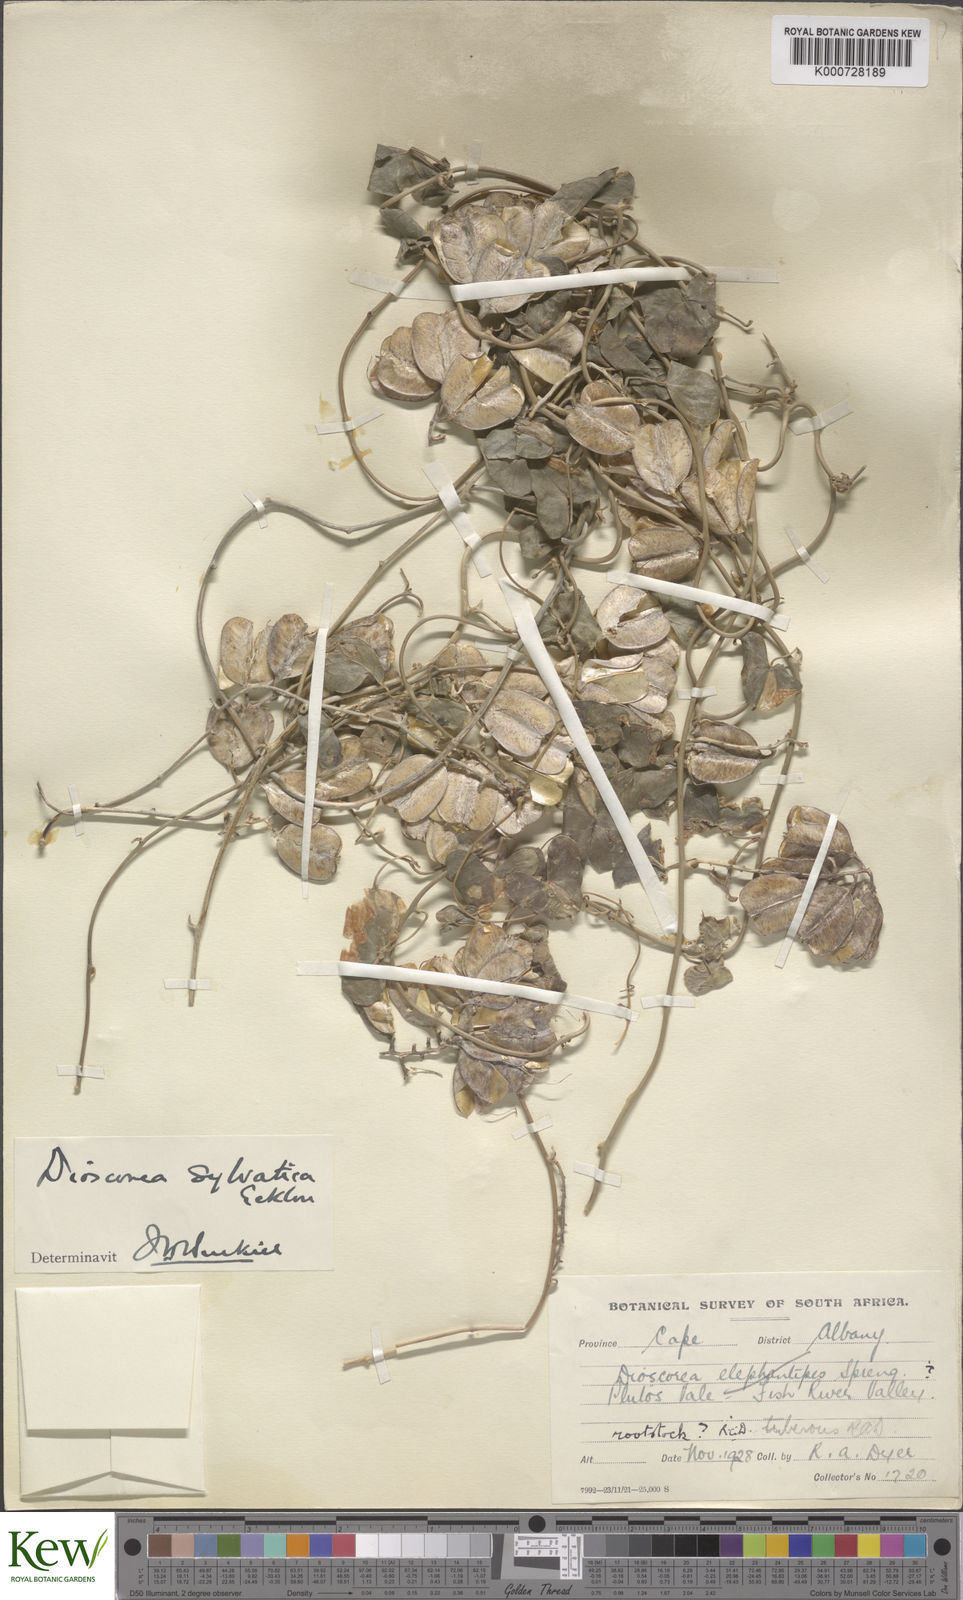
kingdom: Plantae
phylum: Tracheophyta
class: Liliopsida
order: Dioscoreales
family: Dioscoreaceae
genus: Dioscorea
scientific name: Dioscorea sylvatica
